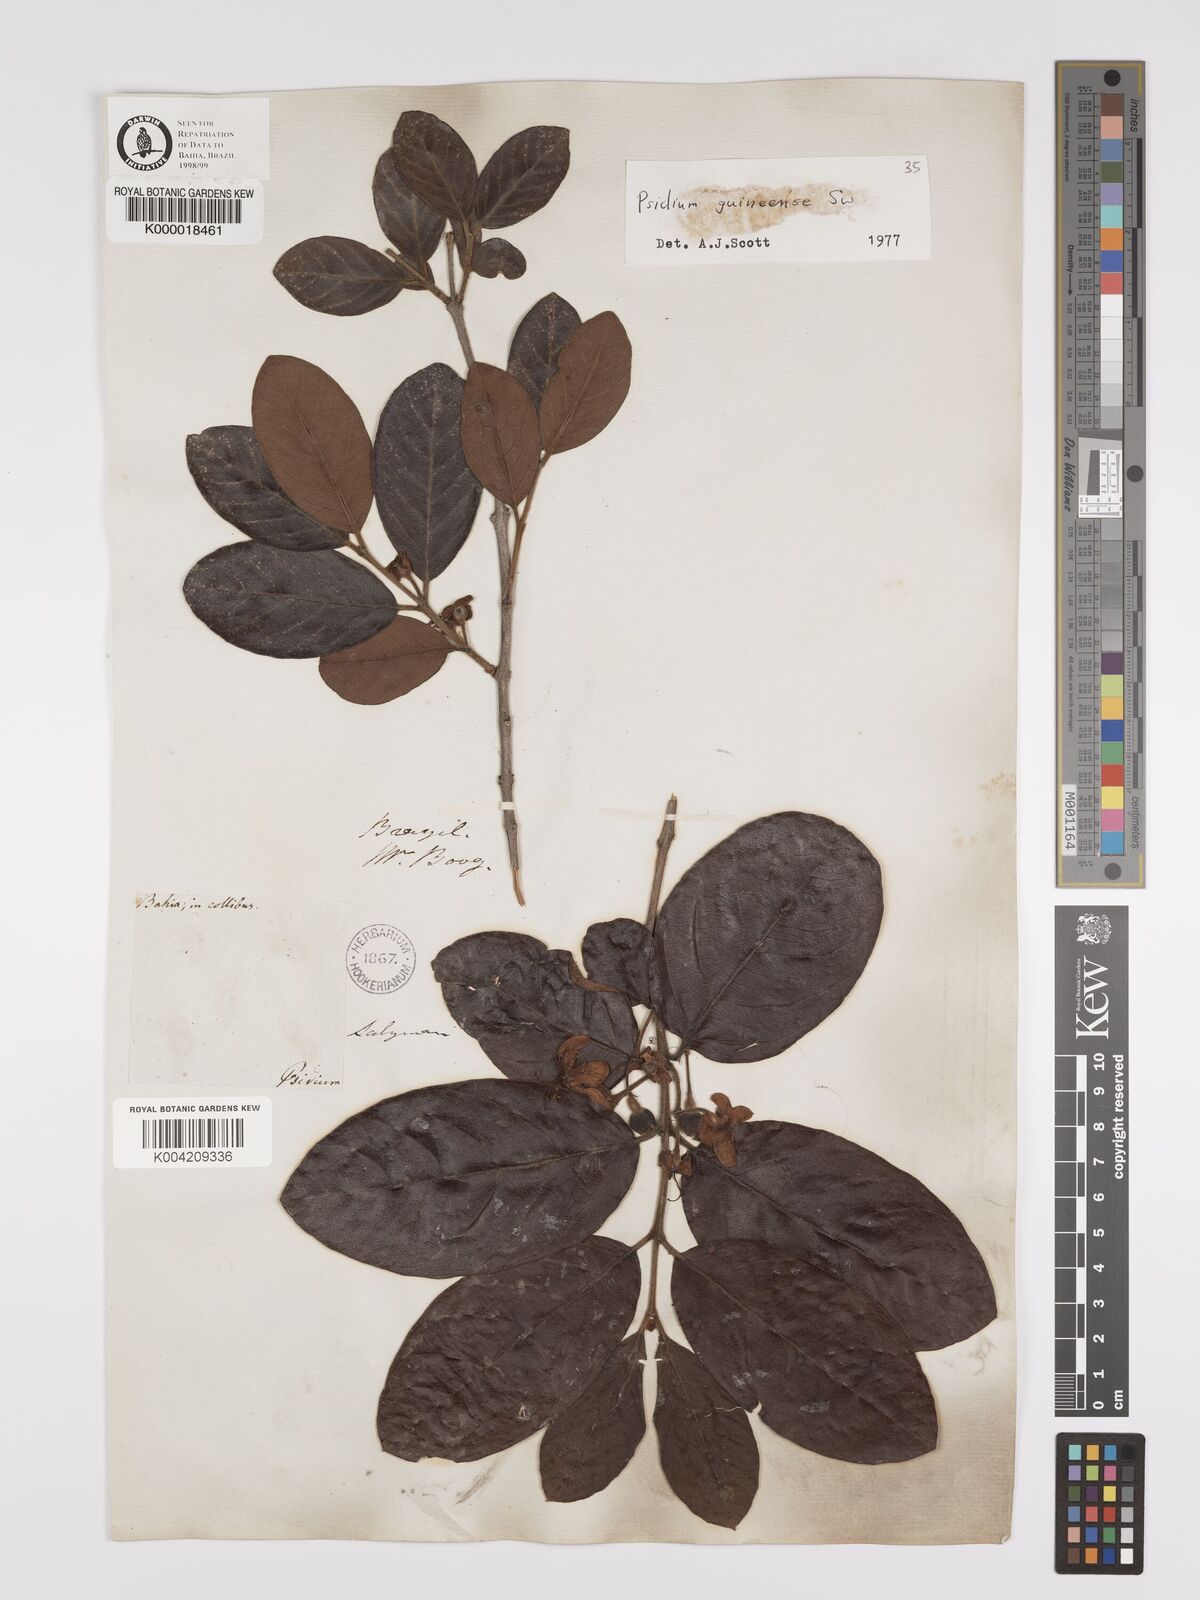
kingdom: Plantae
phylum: Tracheophyta
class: Magnoliopsida
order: Myrtales
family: Myrtaceae
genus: Psidium
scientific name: Psidium guineense
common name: Brazilian guava
